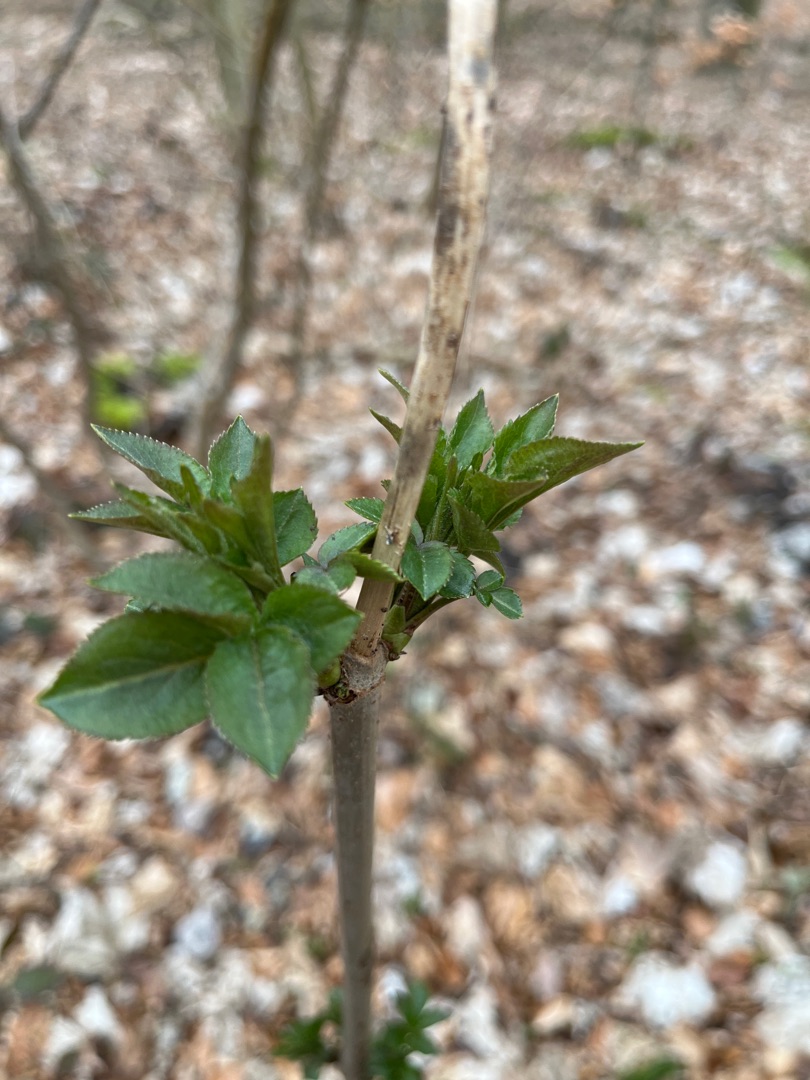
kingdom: Plantae
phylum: Tracheophyta
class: Magnoliopsida
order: Dipsacales
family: Viburnaceae
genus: Sambucus
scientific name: Sambucus nigra
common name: Almindelig hyld
